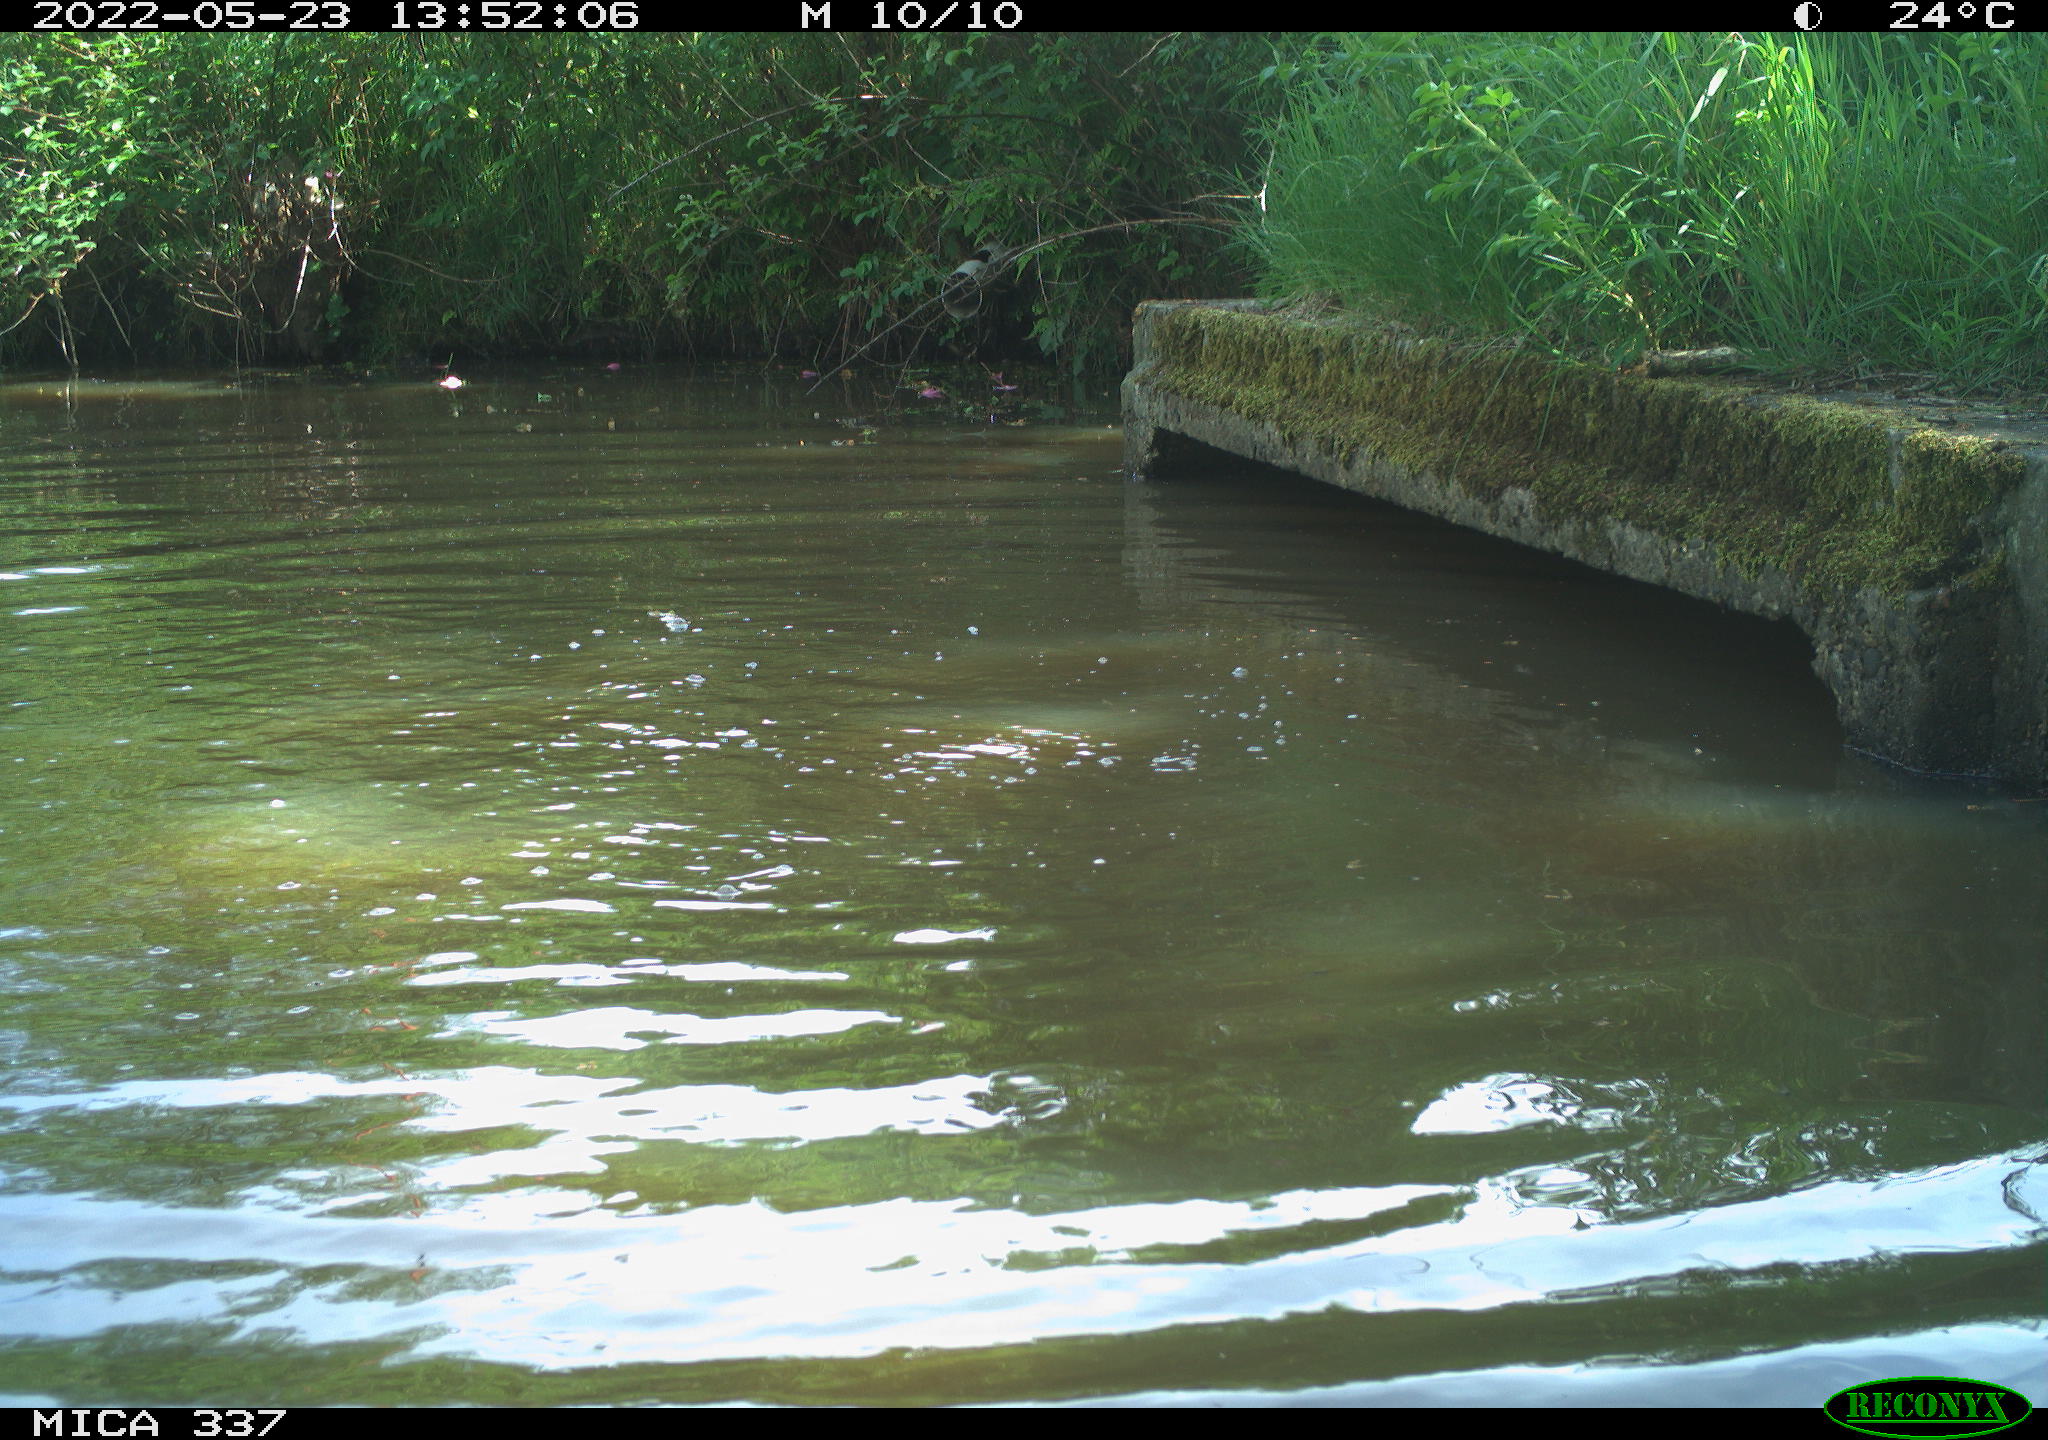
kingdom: Animalia
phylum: Chordata
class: Aves
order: Anseriformes
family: Anatidae
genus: Anas
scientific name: Anas platyrhynchos
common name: Mallard
